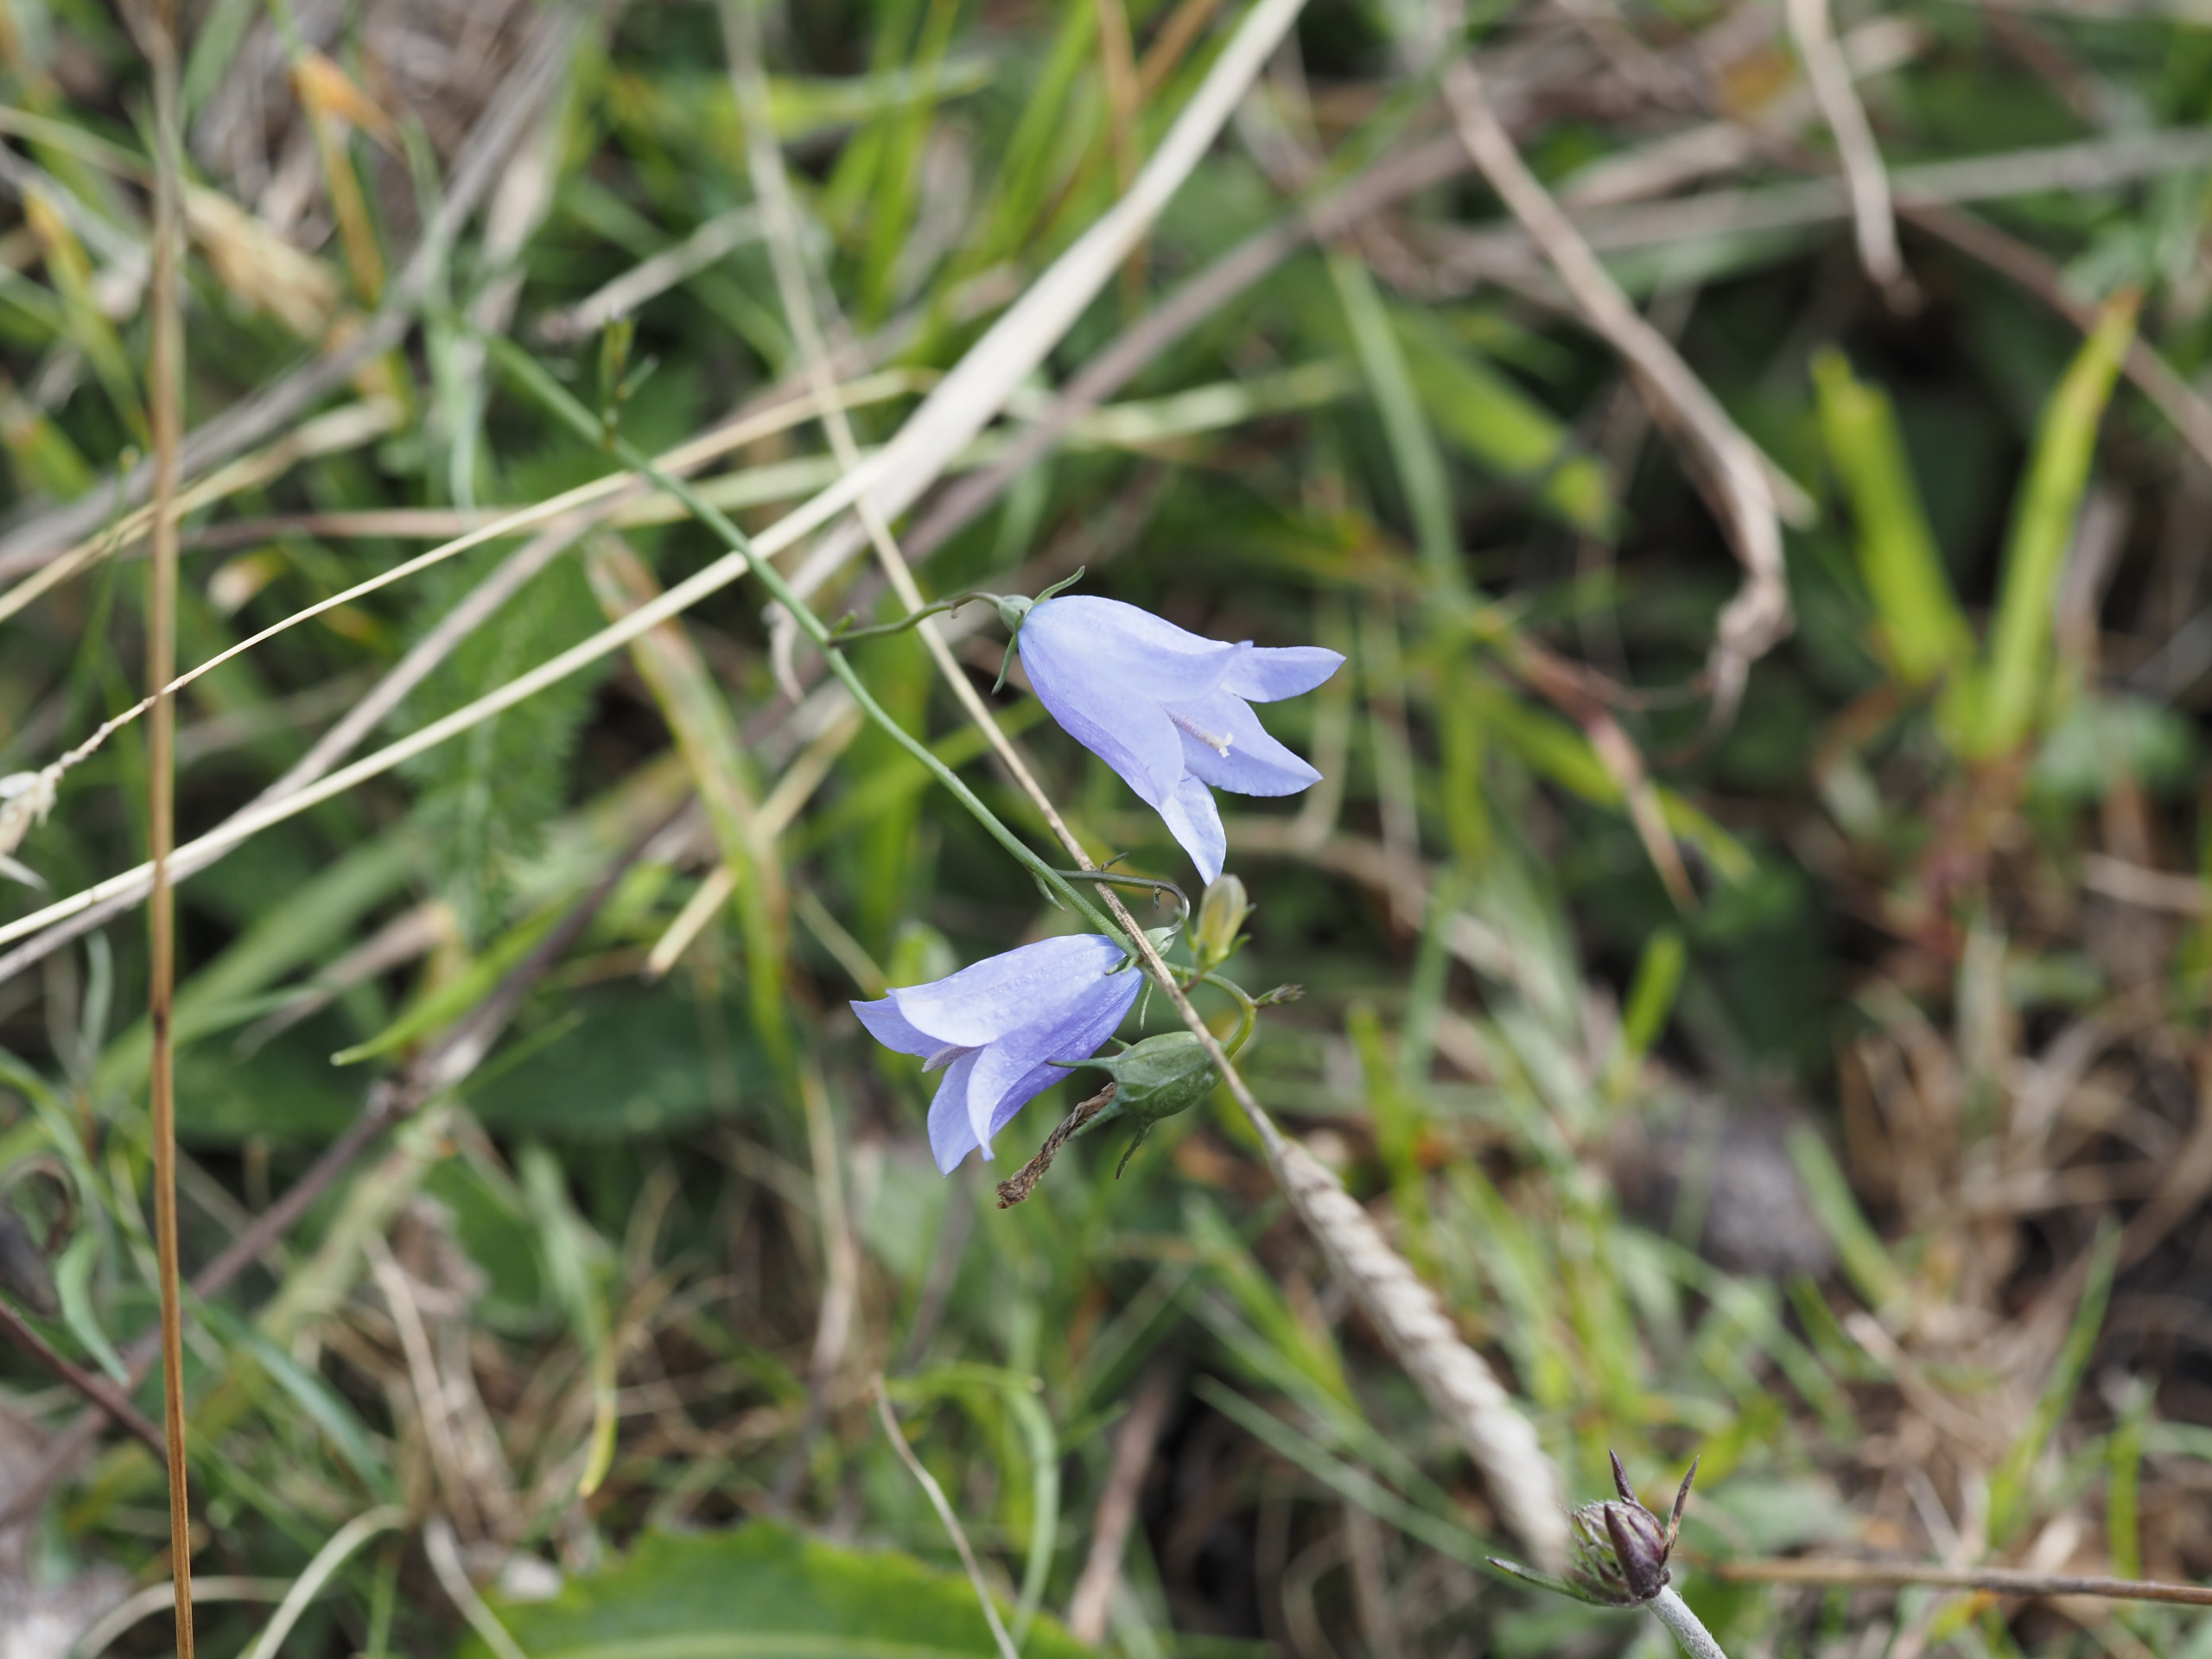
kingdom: Plantae
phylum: Tracheophyta
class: Magnoliopsida
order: Asterales
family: Campanulaceae
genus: Campanula
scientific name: Campanula rotundifolia
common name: Liden klokke
